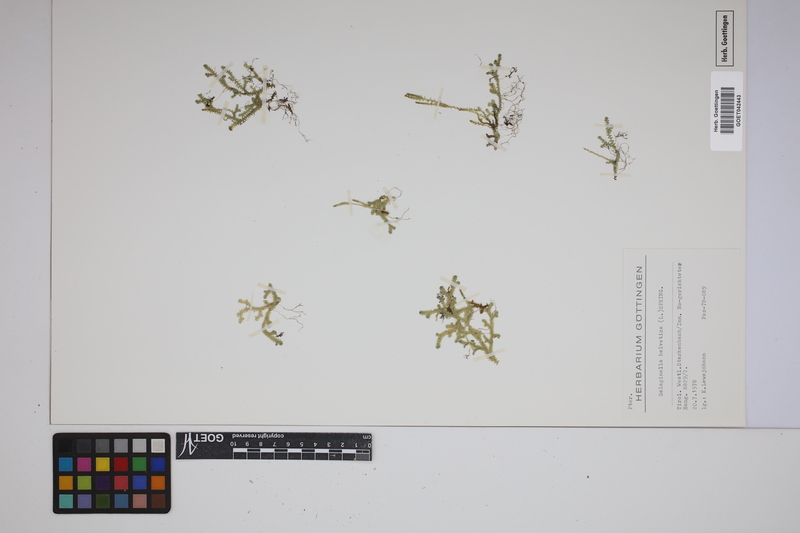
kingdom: Plantae
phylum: Tracheophyta
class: Lycopodiopsida
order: Selaginellales
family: Selaginellaceae
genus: Selaginella
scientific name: Selaginella helvetica
